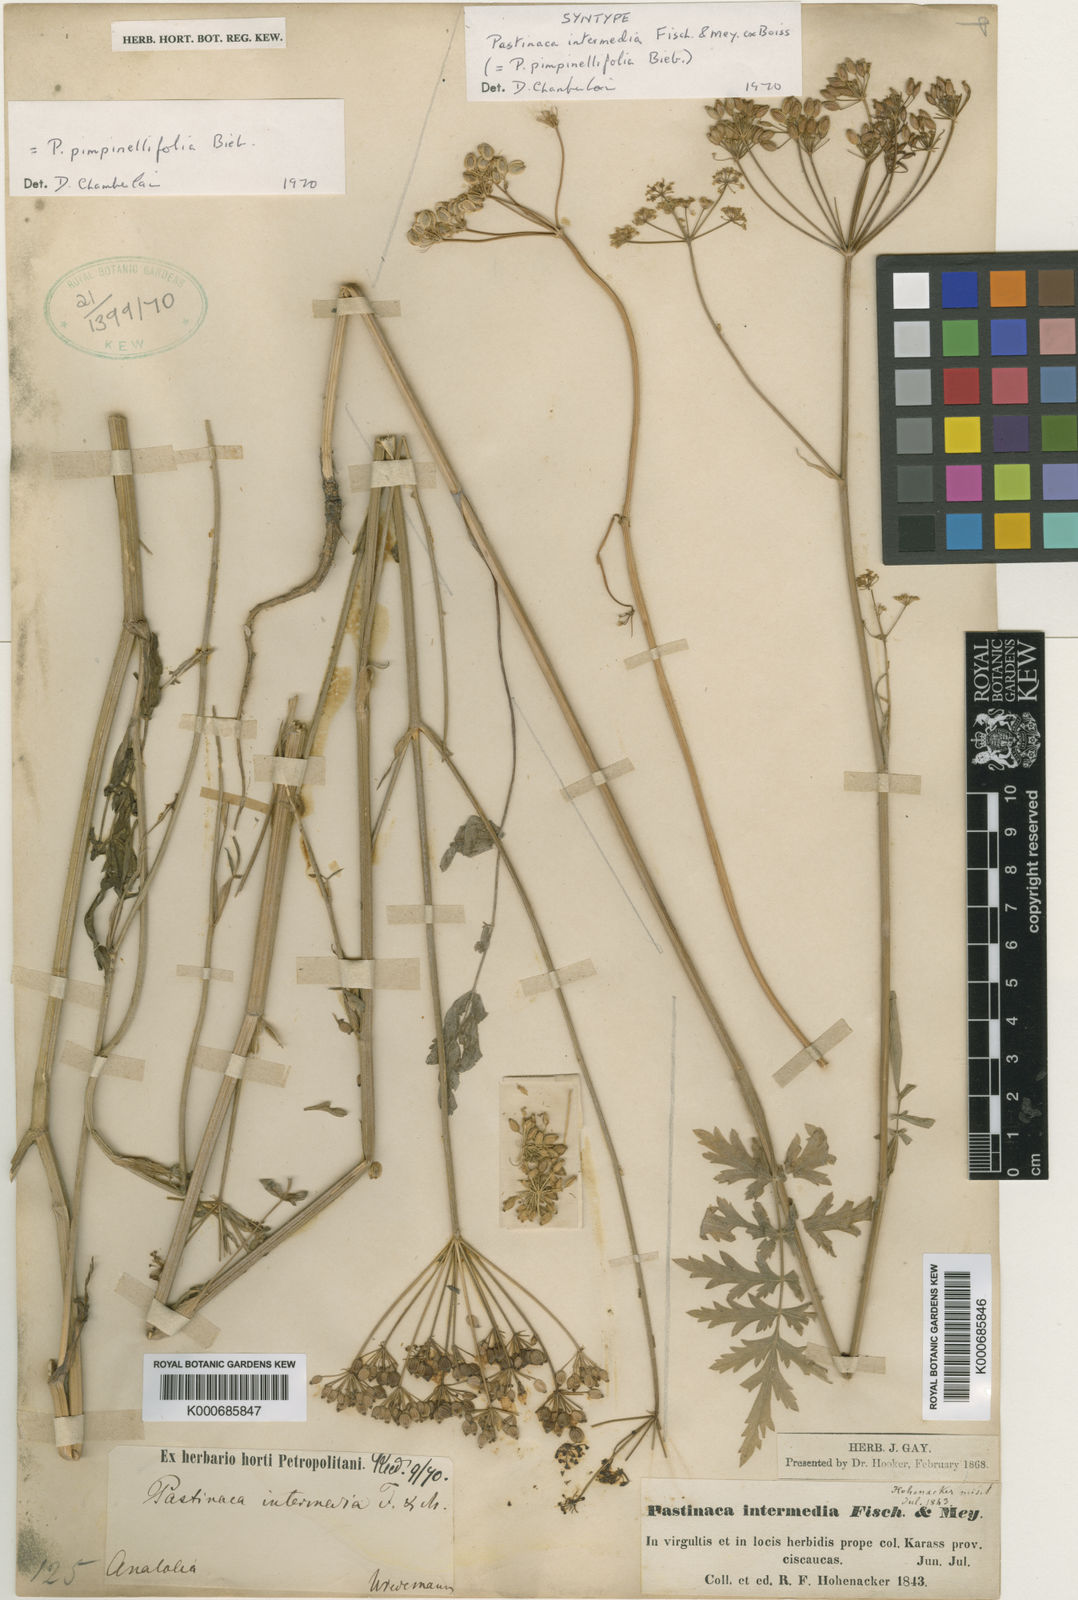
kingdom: Plantae
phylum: Tracheophyta
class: Magnoliopsida
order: Apiales
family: Apiaceae
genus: Pastinaca
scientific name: Pastinaca pimpinellifolia
